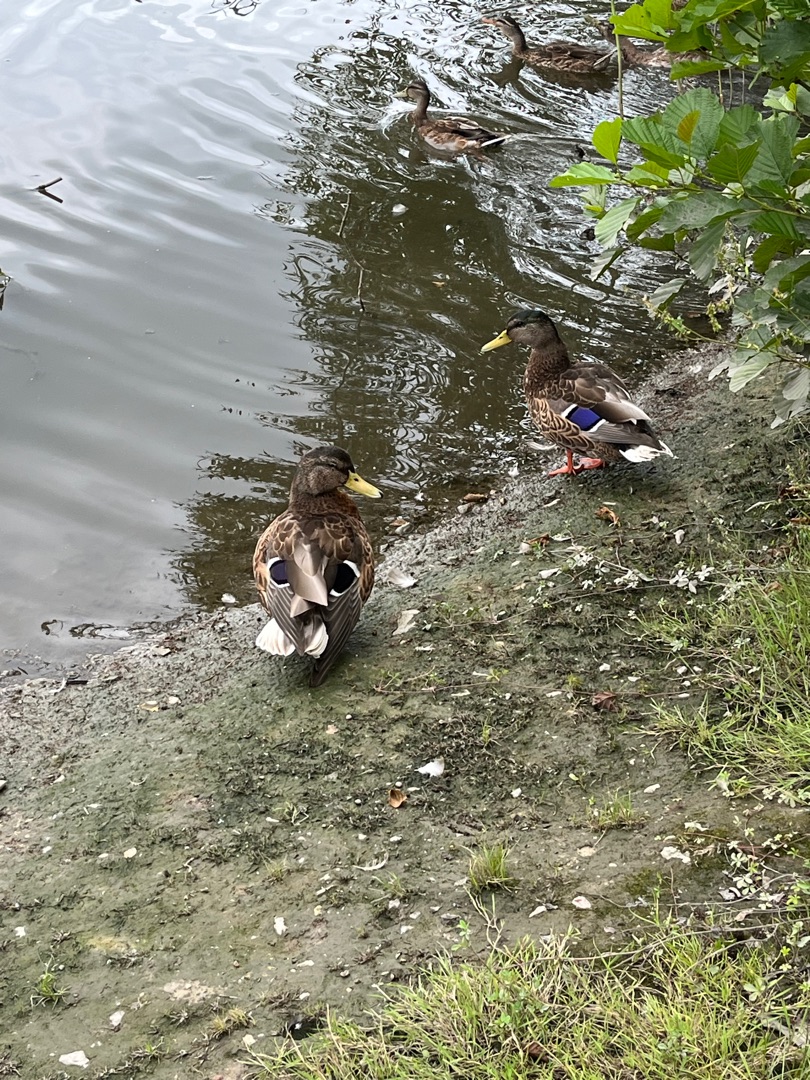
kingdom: Animalia
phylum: Chordata
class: Aves
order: Anseriformes
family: Anatidae
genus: Anas
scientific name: Anas platyrhynchos
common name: Gråand
